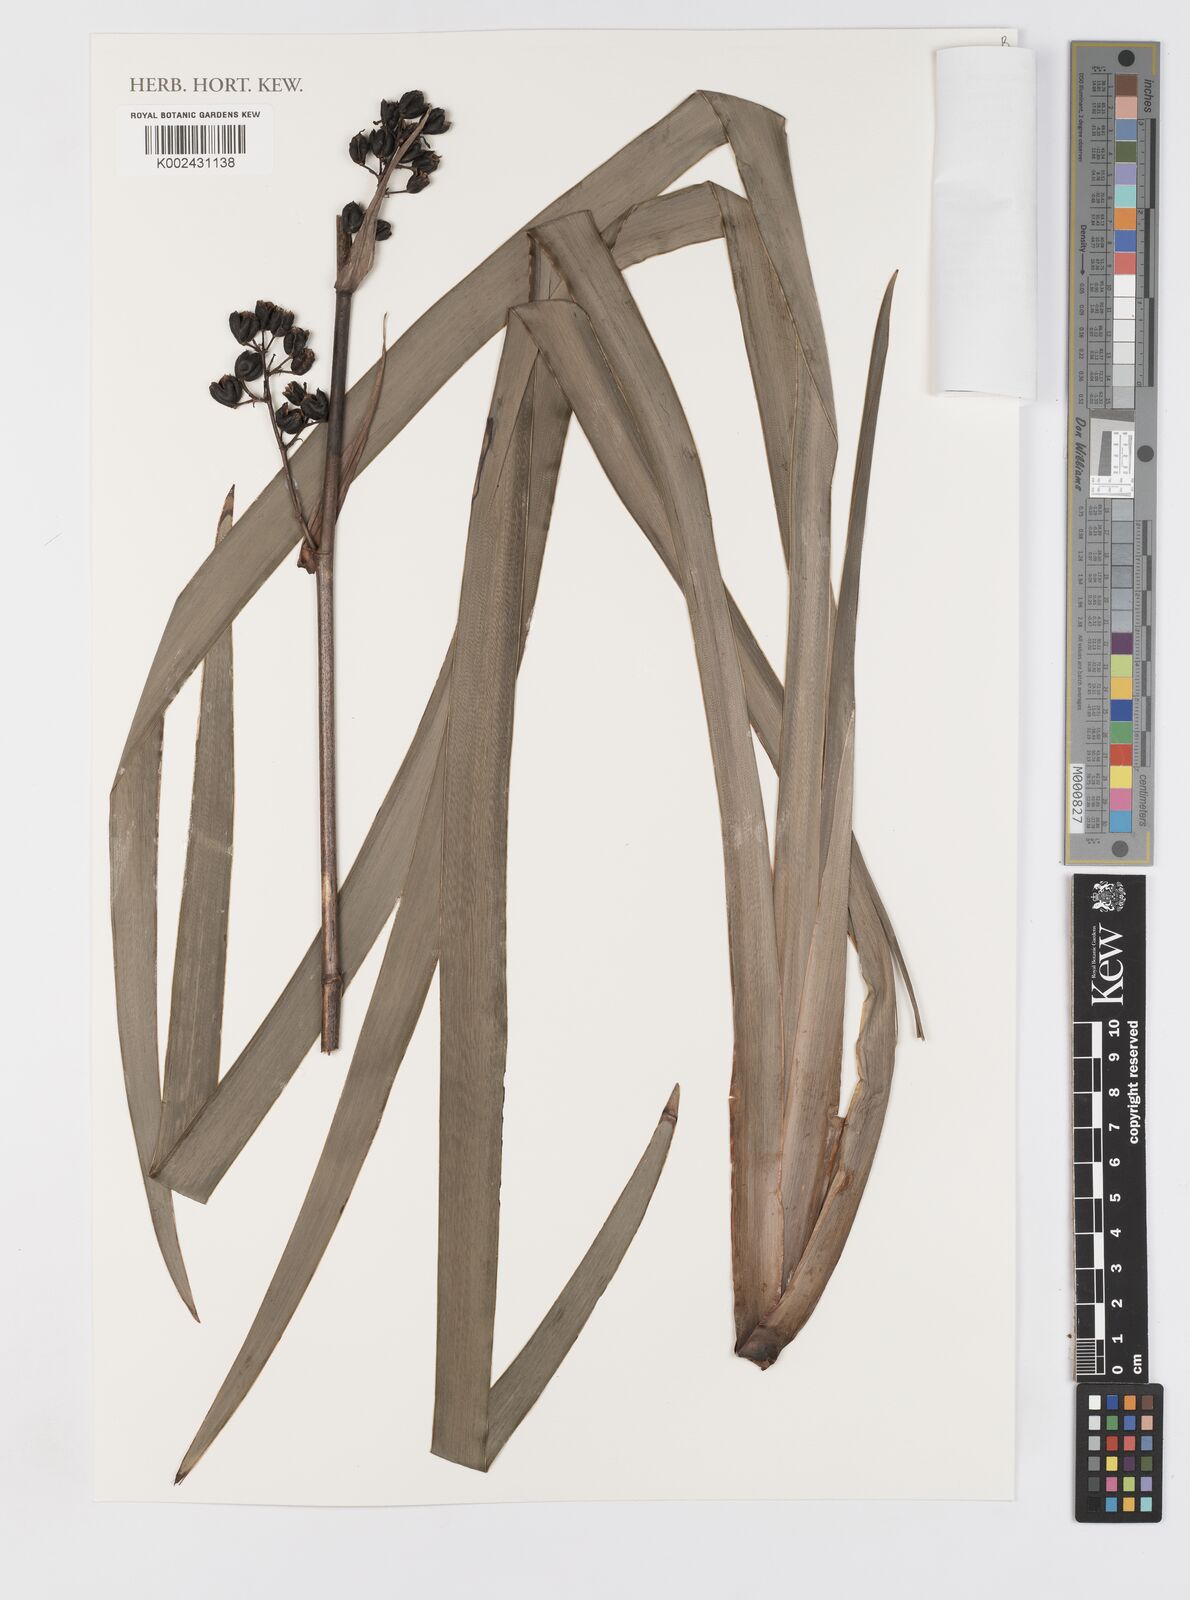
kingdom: Plantae
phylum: Tracheophyta
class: Liliopsida
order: Asparagales
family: Iridaceae
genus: Aristea
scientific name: Aristea latifolia
